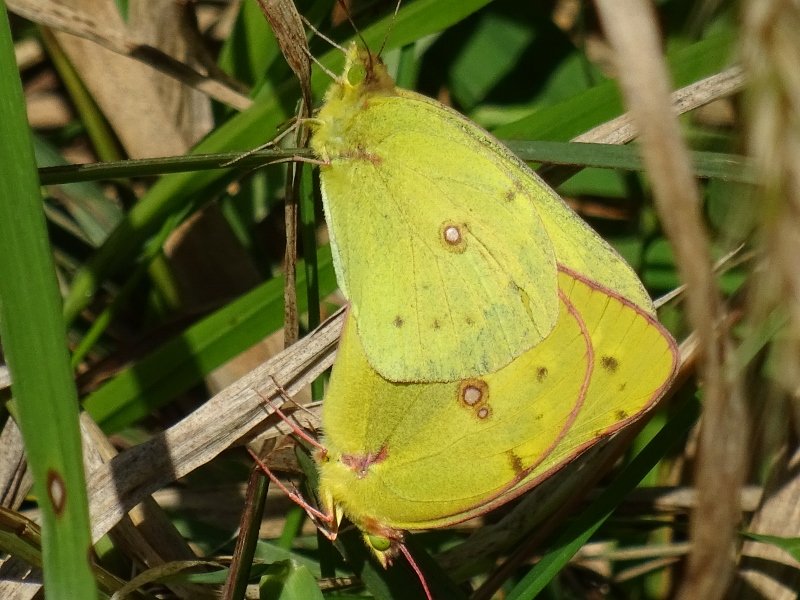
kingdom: Animalia
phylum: Arthropoda
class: Insecta
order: Lepidoptera
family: Pieridae
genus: Colias
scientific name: Colias philodice
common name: Clouded Sulphur
